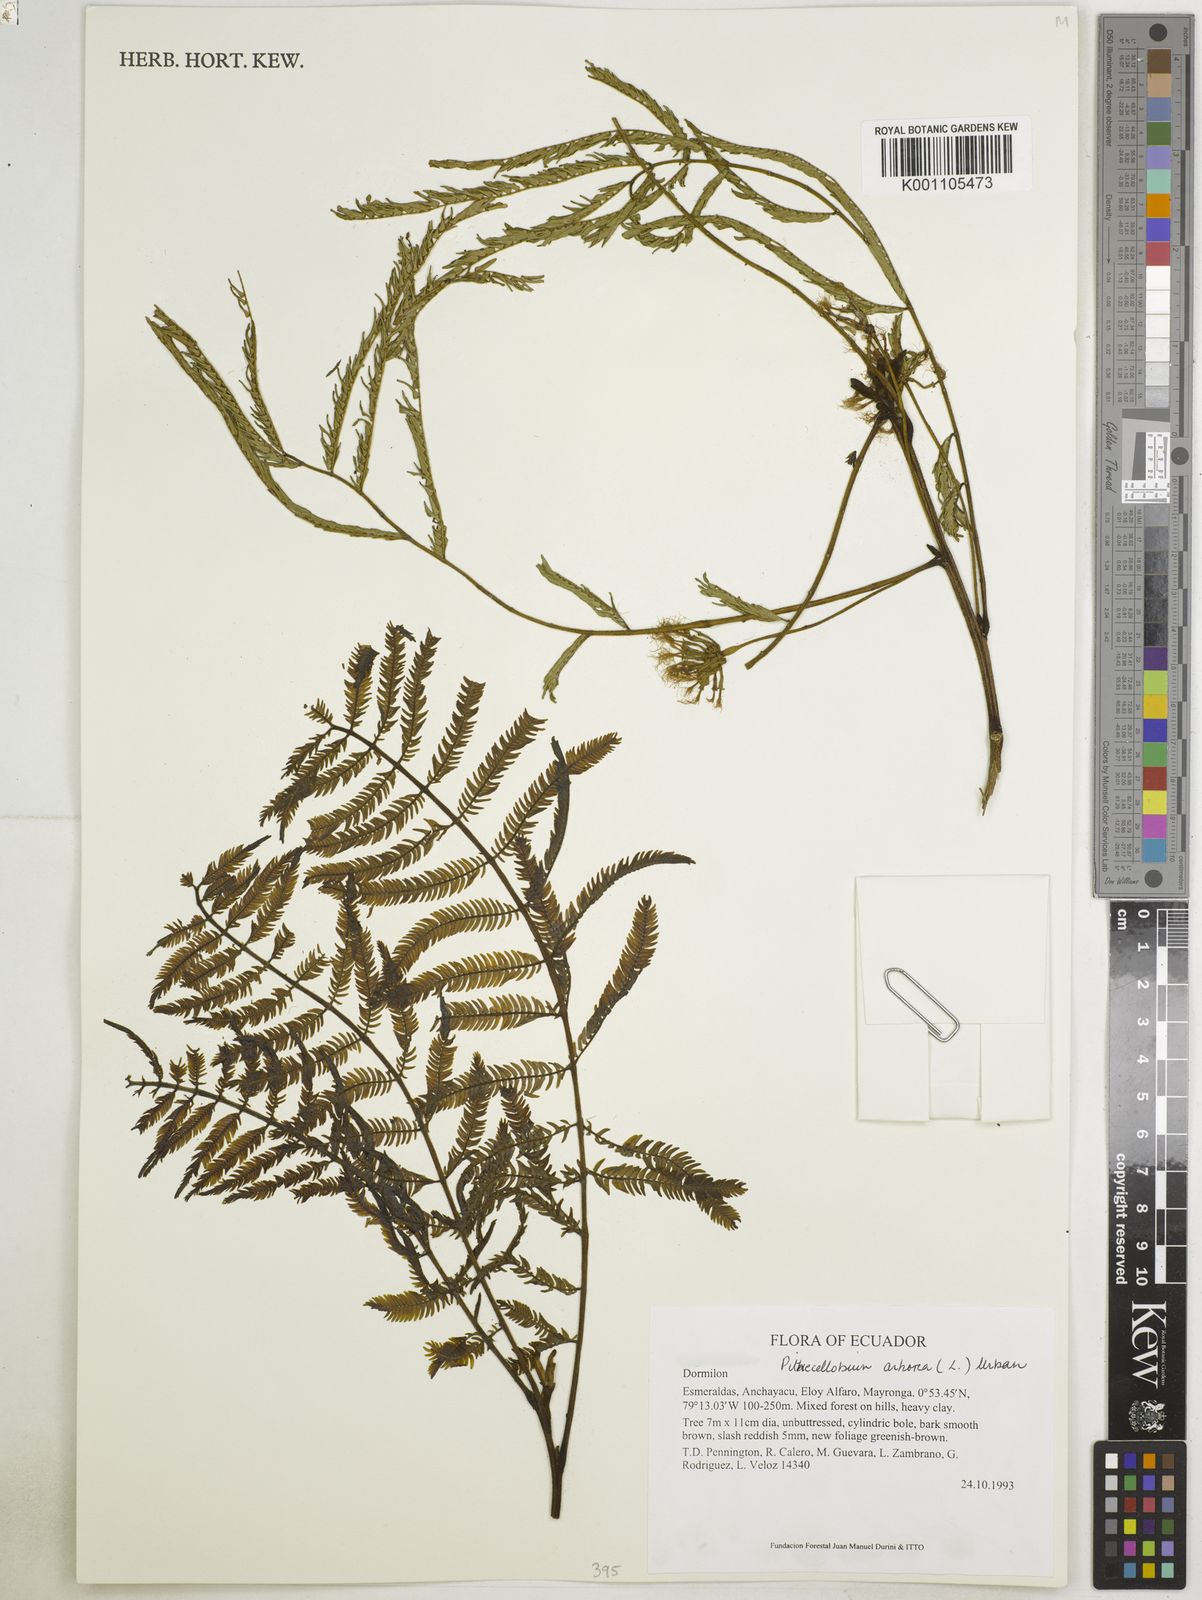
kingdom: Plantae
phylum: Tracheophyta
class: Magnoliopsida
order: Fabales
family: Fabaceae
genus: Cojoba
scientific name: Cojoba arborea
